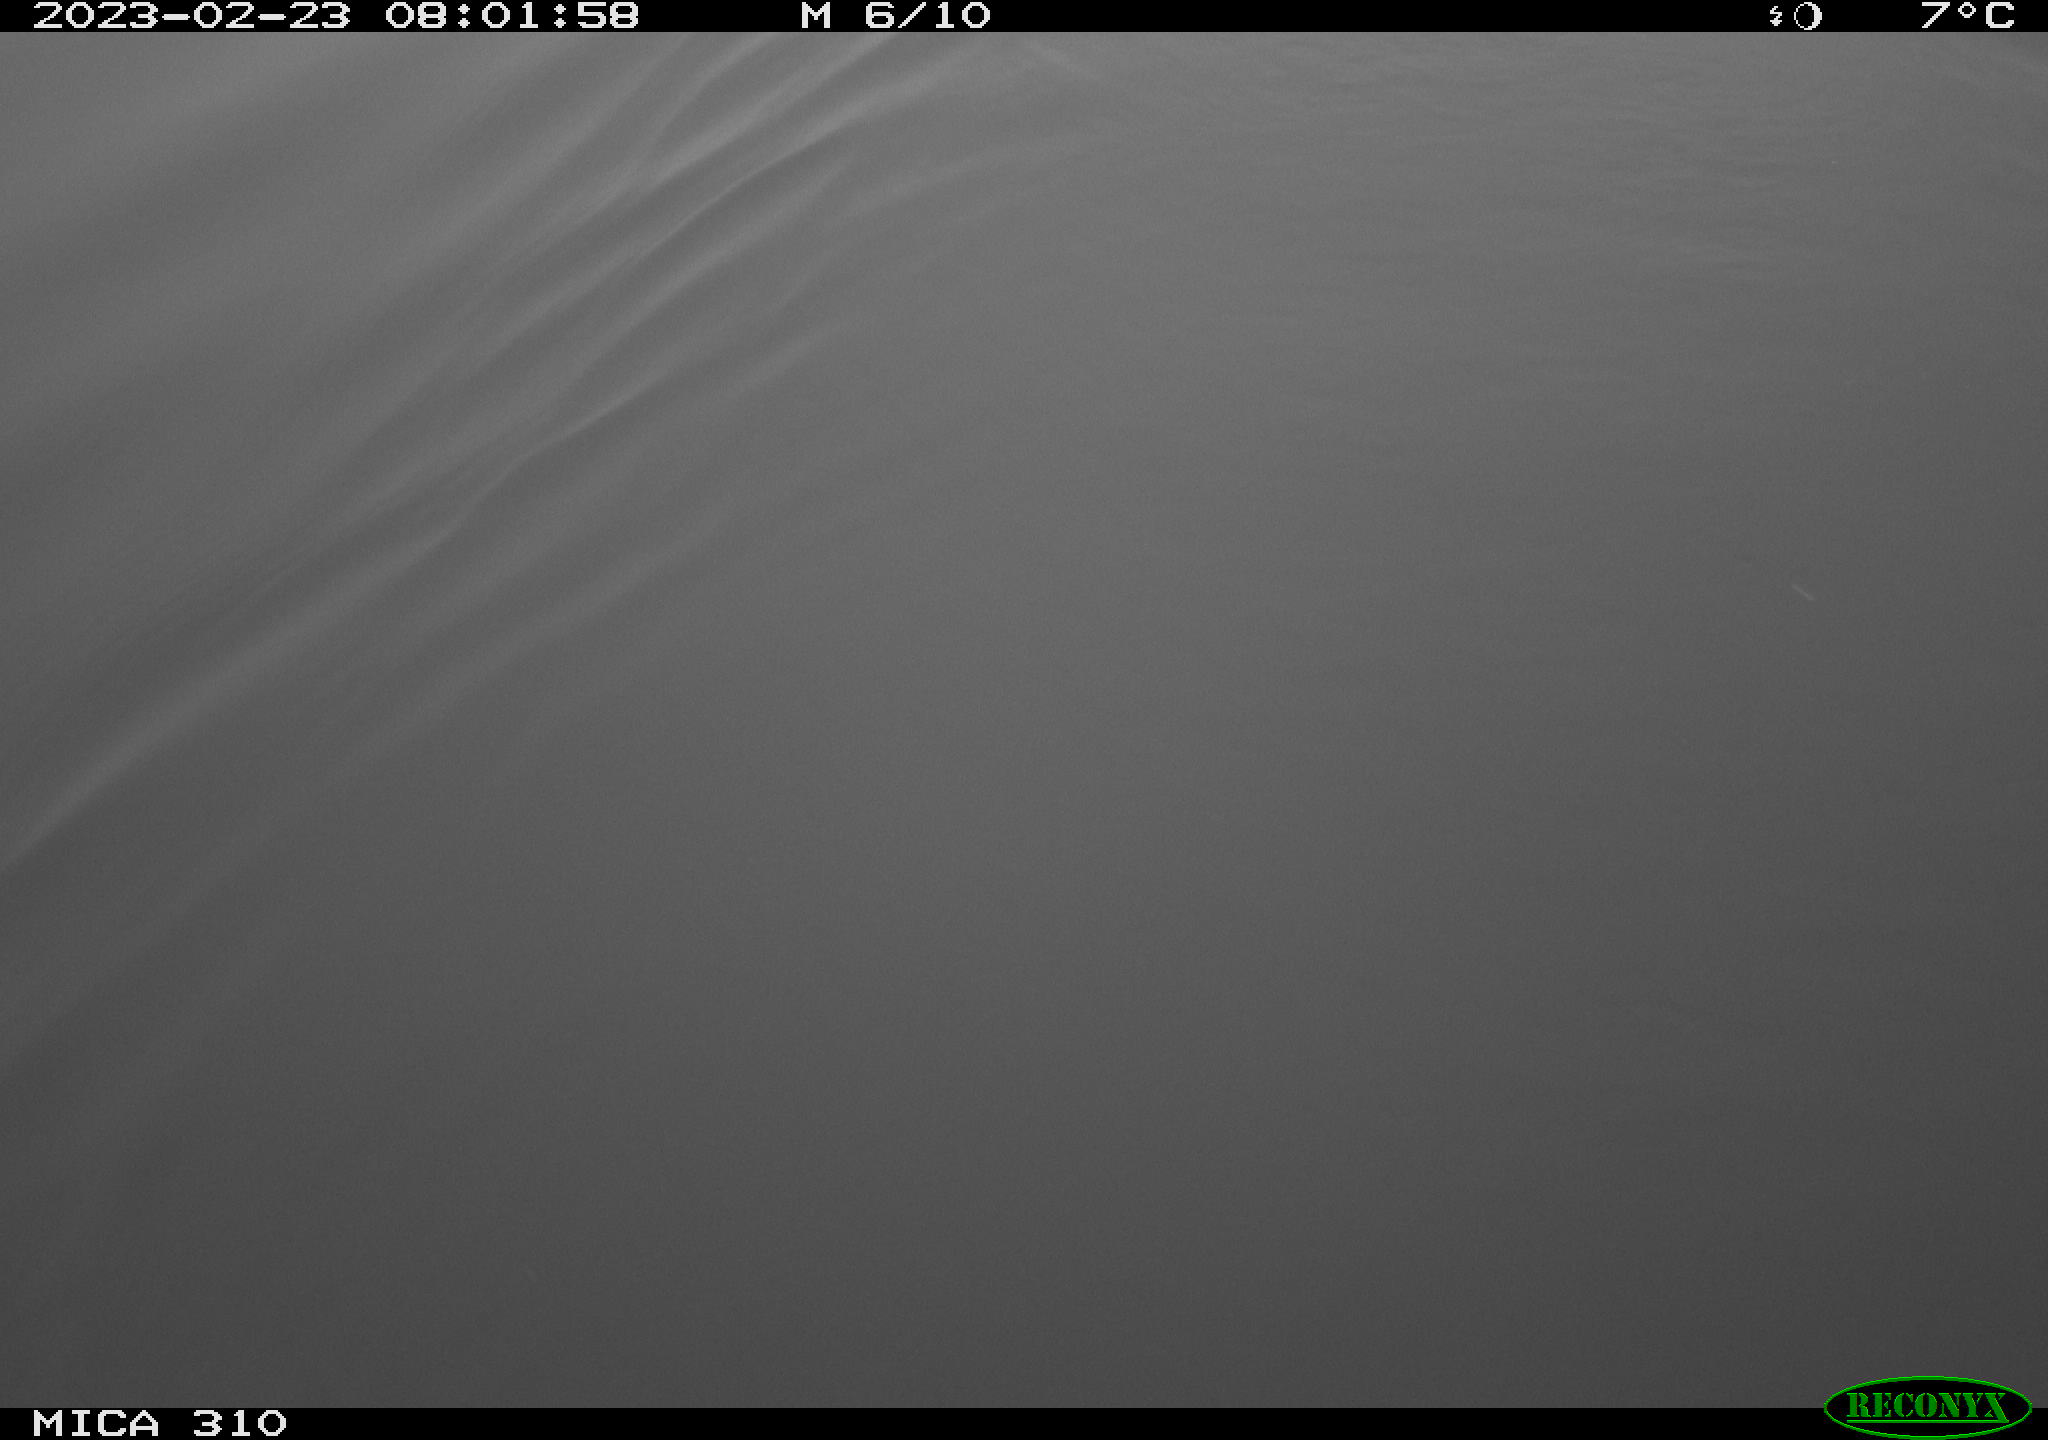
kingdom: Animalia
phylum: Chordata
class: Aves
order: Anseriformes
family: Anatidae
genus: Branta
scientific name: Branta canadensis
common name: Canada goose
